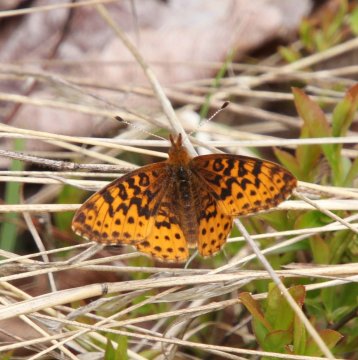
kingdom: Animalia
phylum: Arthropoda
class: Insecta
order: Lepidoptera
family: Nymphalidae
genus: Clossiana
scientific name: Clossiana toddi
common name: Meadow Fritillary
